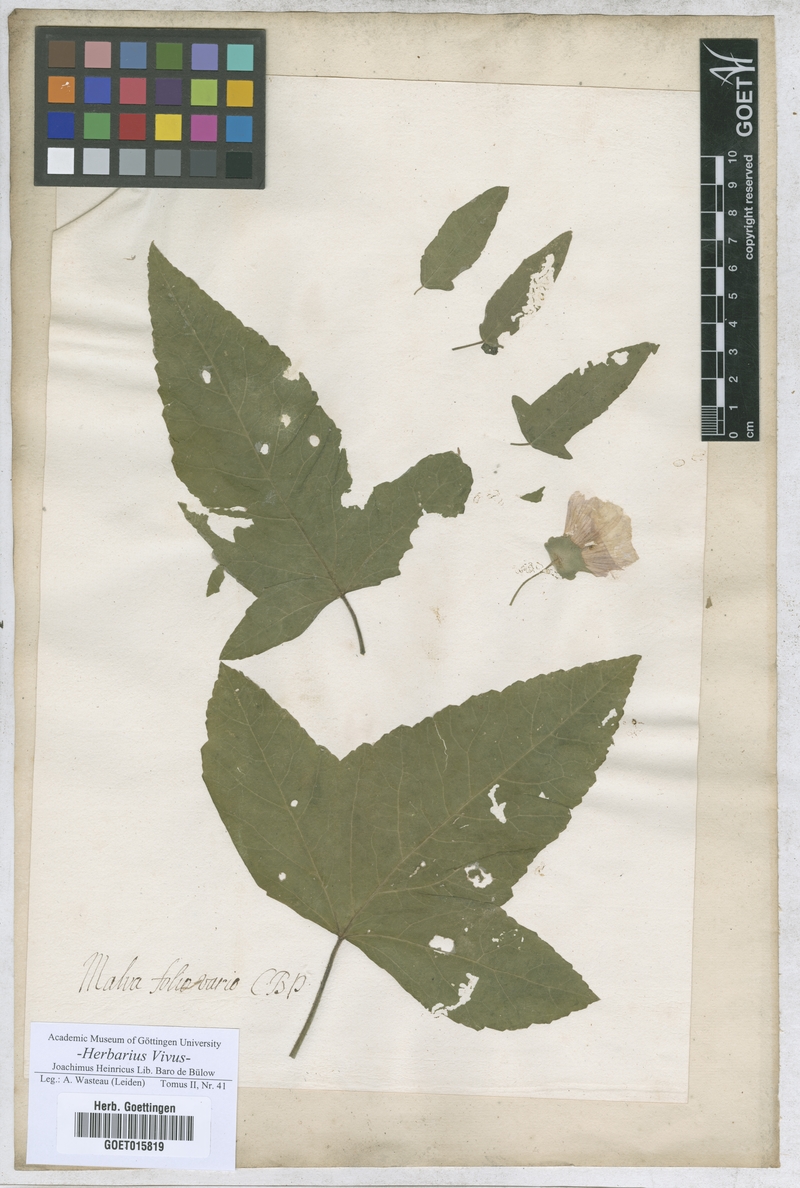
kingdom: Plantae
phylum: Tracheophyta
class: Magnoliopsida
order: Malvales
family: Malvaceae
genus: Malva
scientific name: Malva trimestris
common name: Royal mallow
